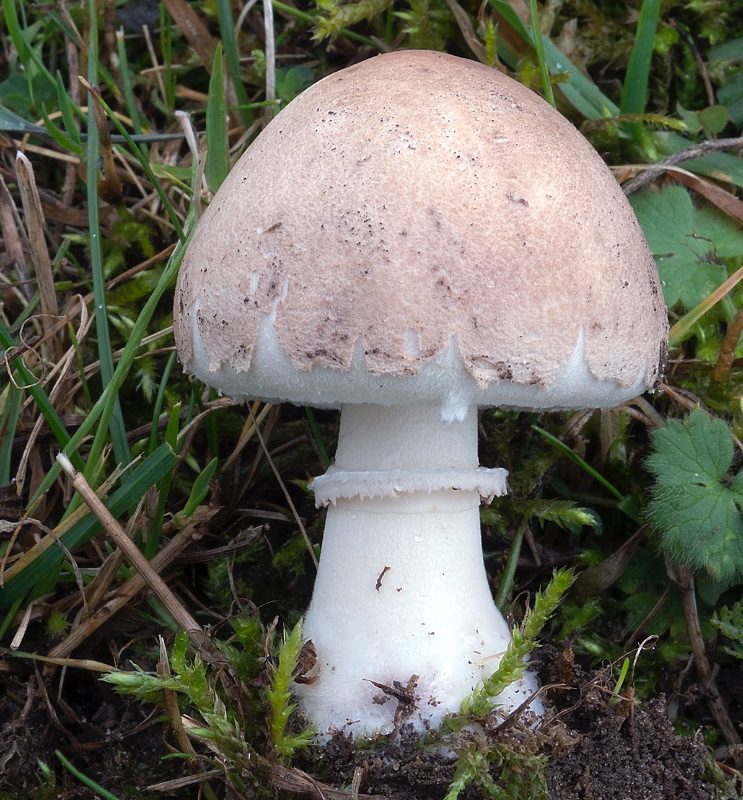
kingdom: Fungi
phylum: Basidiomycota
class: Agaricomycetes
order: Agaricales
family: Agaricaceae
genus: Macrolepiota
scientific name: Macrolepiota excoriata
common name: mark-kæmpeparasolhat
